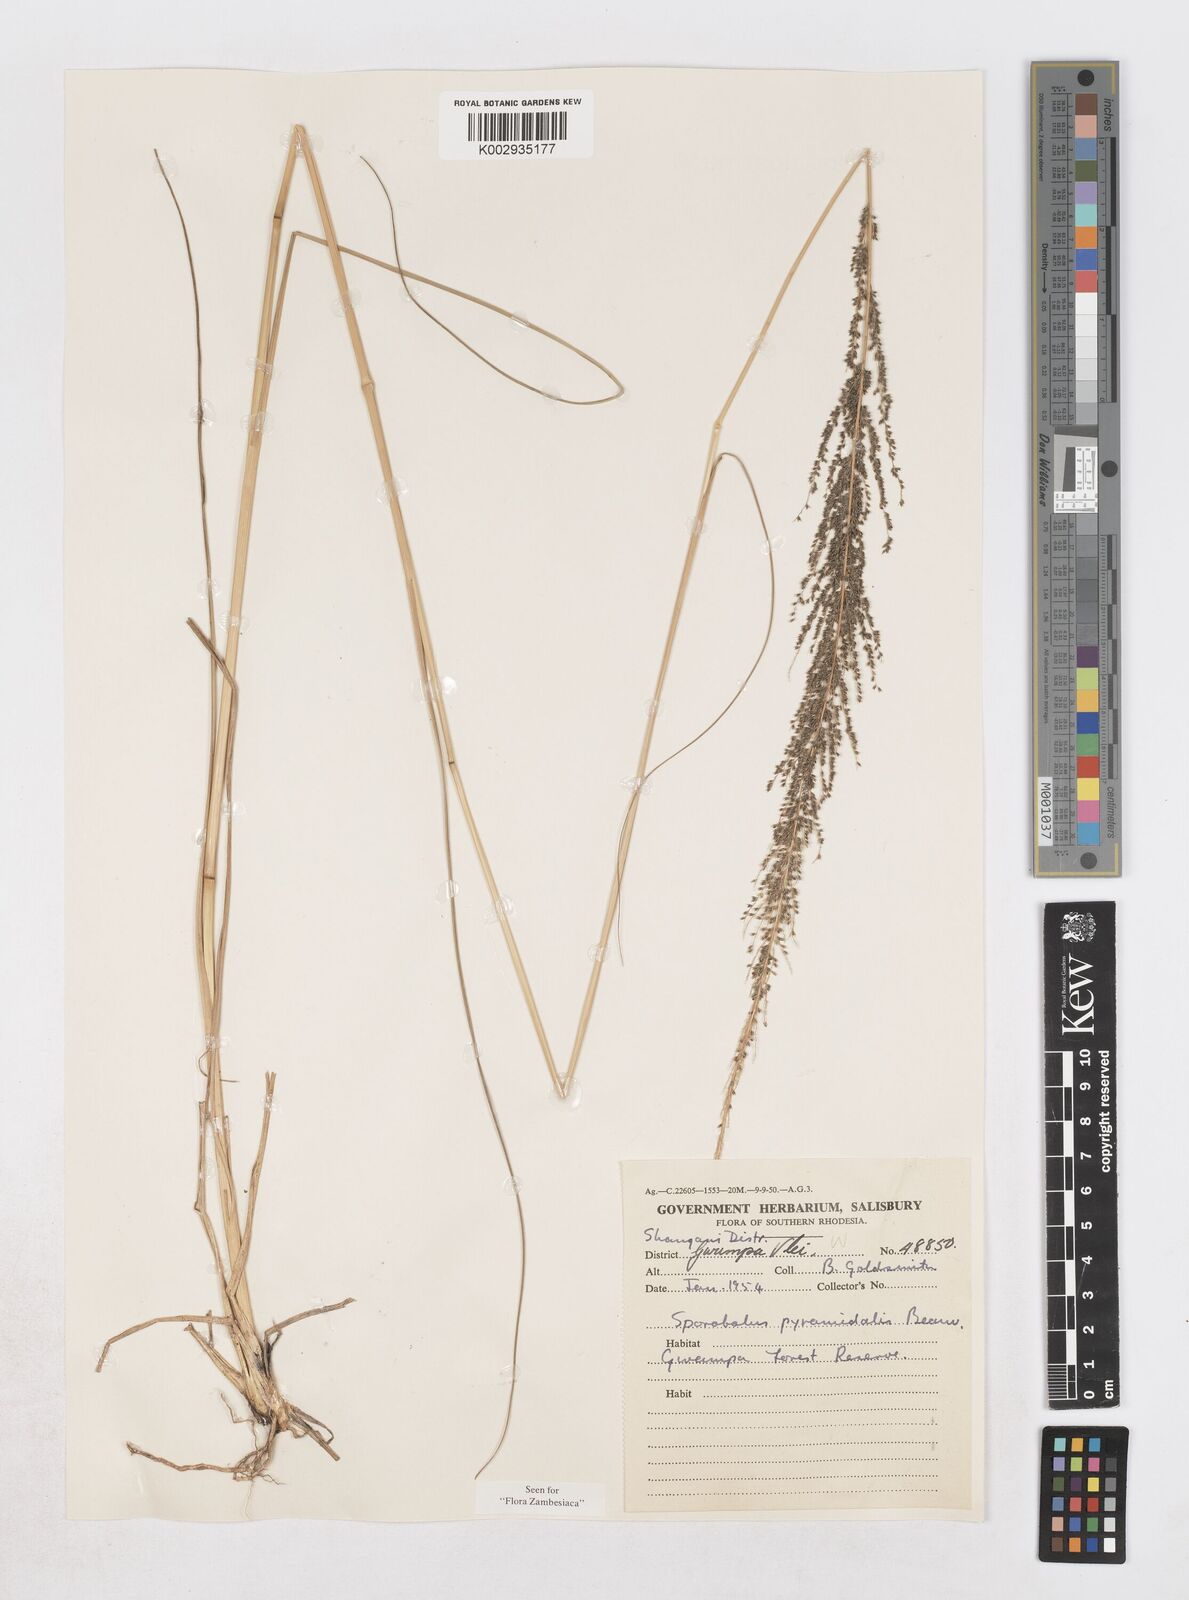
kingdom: Plantae
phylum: Tracheophyta
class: Liliopsida
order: Poales
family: Poaceae
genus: Sporobolus
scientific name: Sporobolus pyramidalis
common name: West indian dropseed
